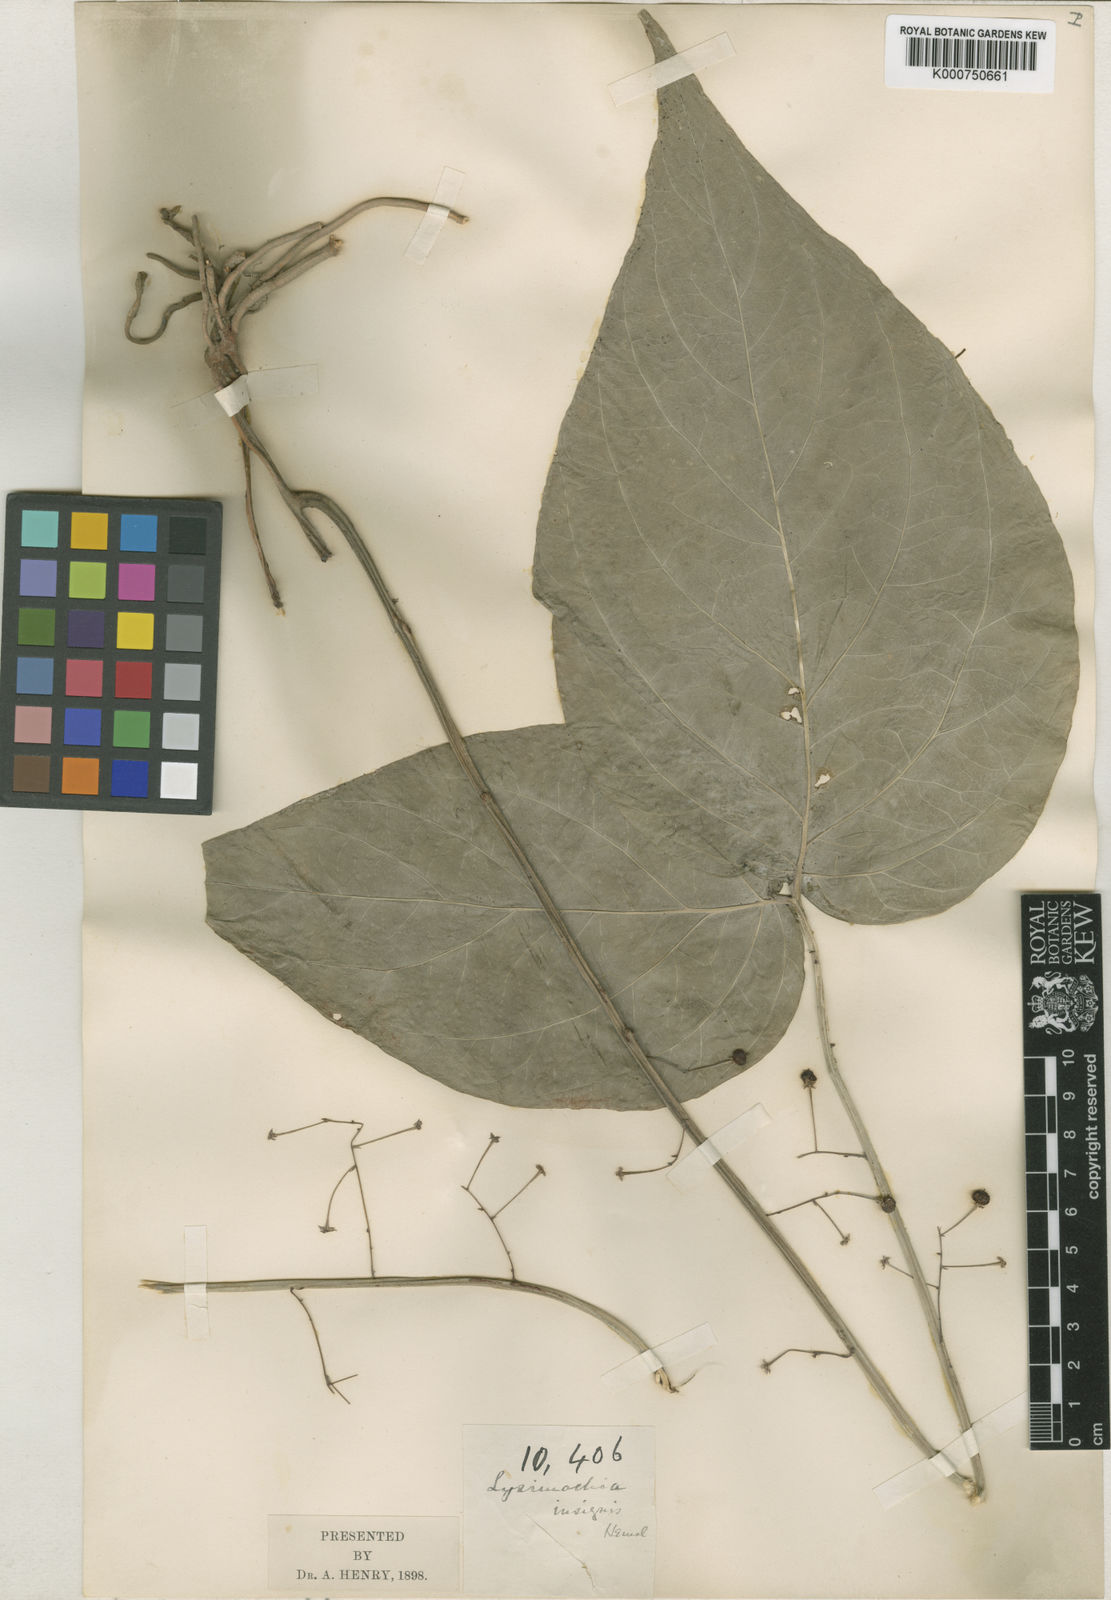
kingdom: Plantae
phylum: Tracheophyta
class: Magnoliopsida
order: Ericales
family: Primulaceae
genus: Lysimachia
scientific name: Lysimachia insignis
